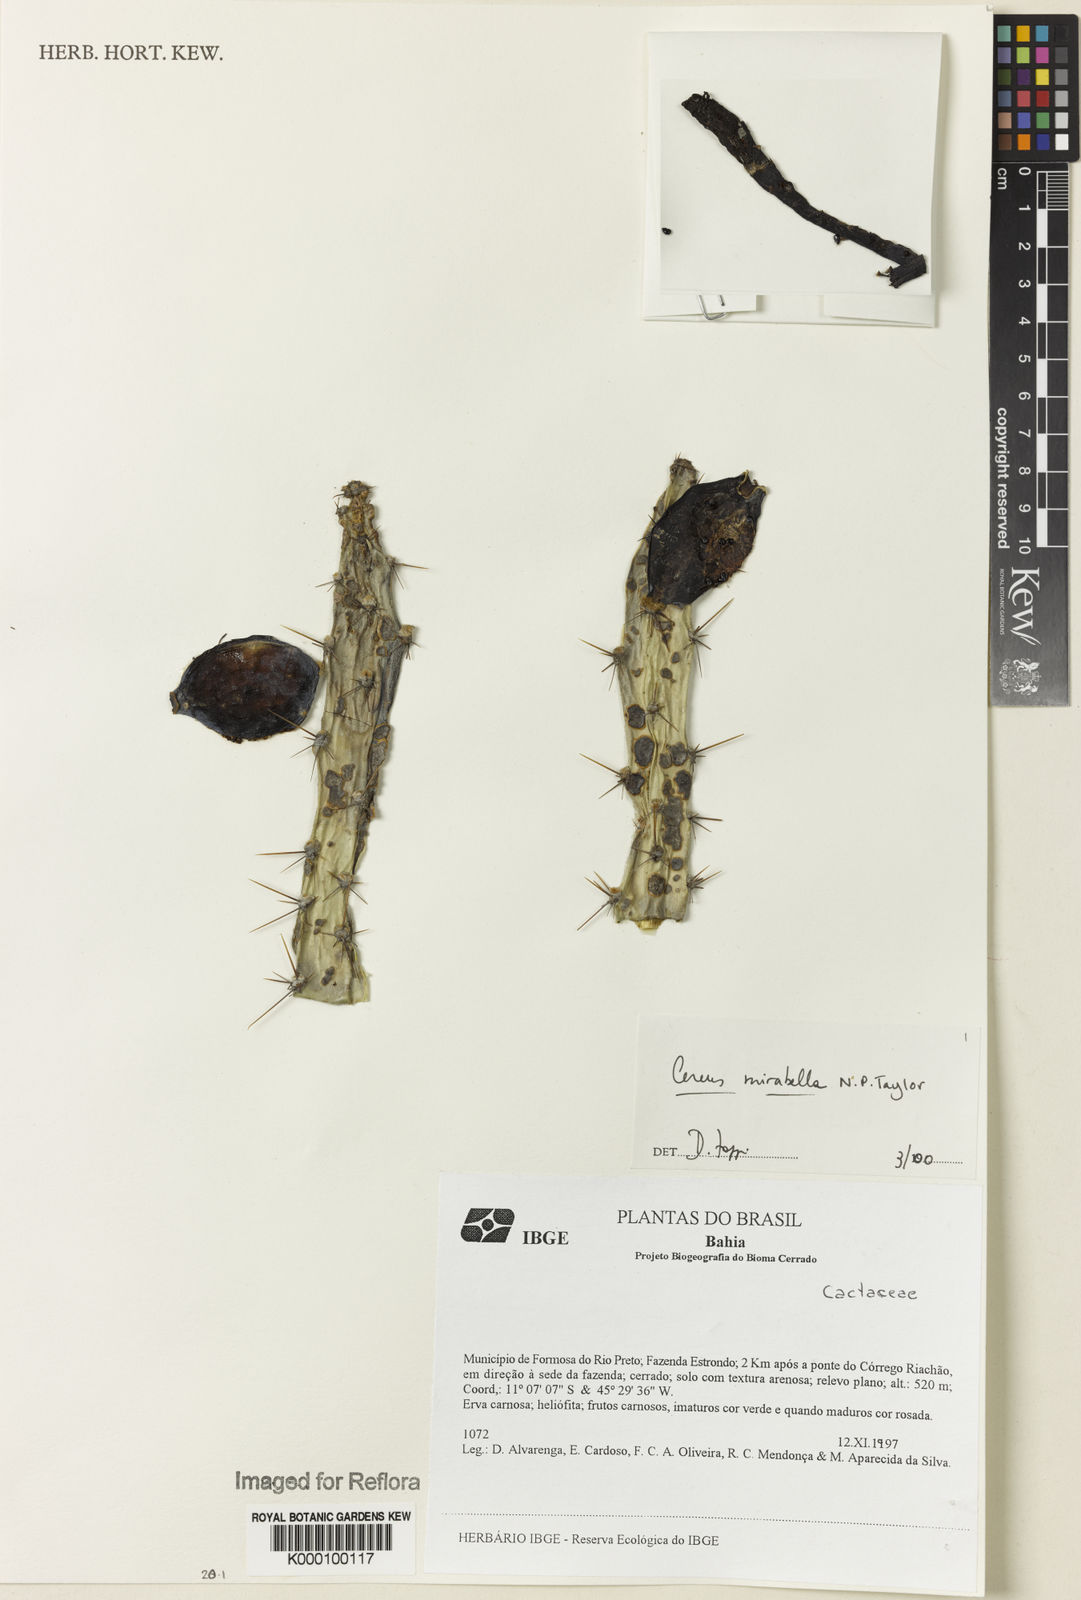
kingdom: Plantae
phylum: Tracheophyta
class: Magnoliopsida
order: Caryophyllales
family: Cactaceae
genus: Cereus
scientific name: Cereus mirabella
